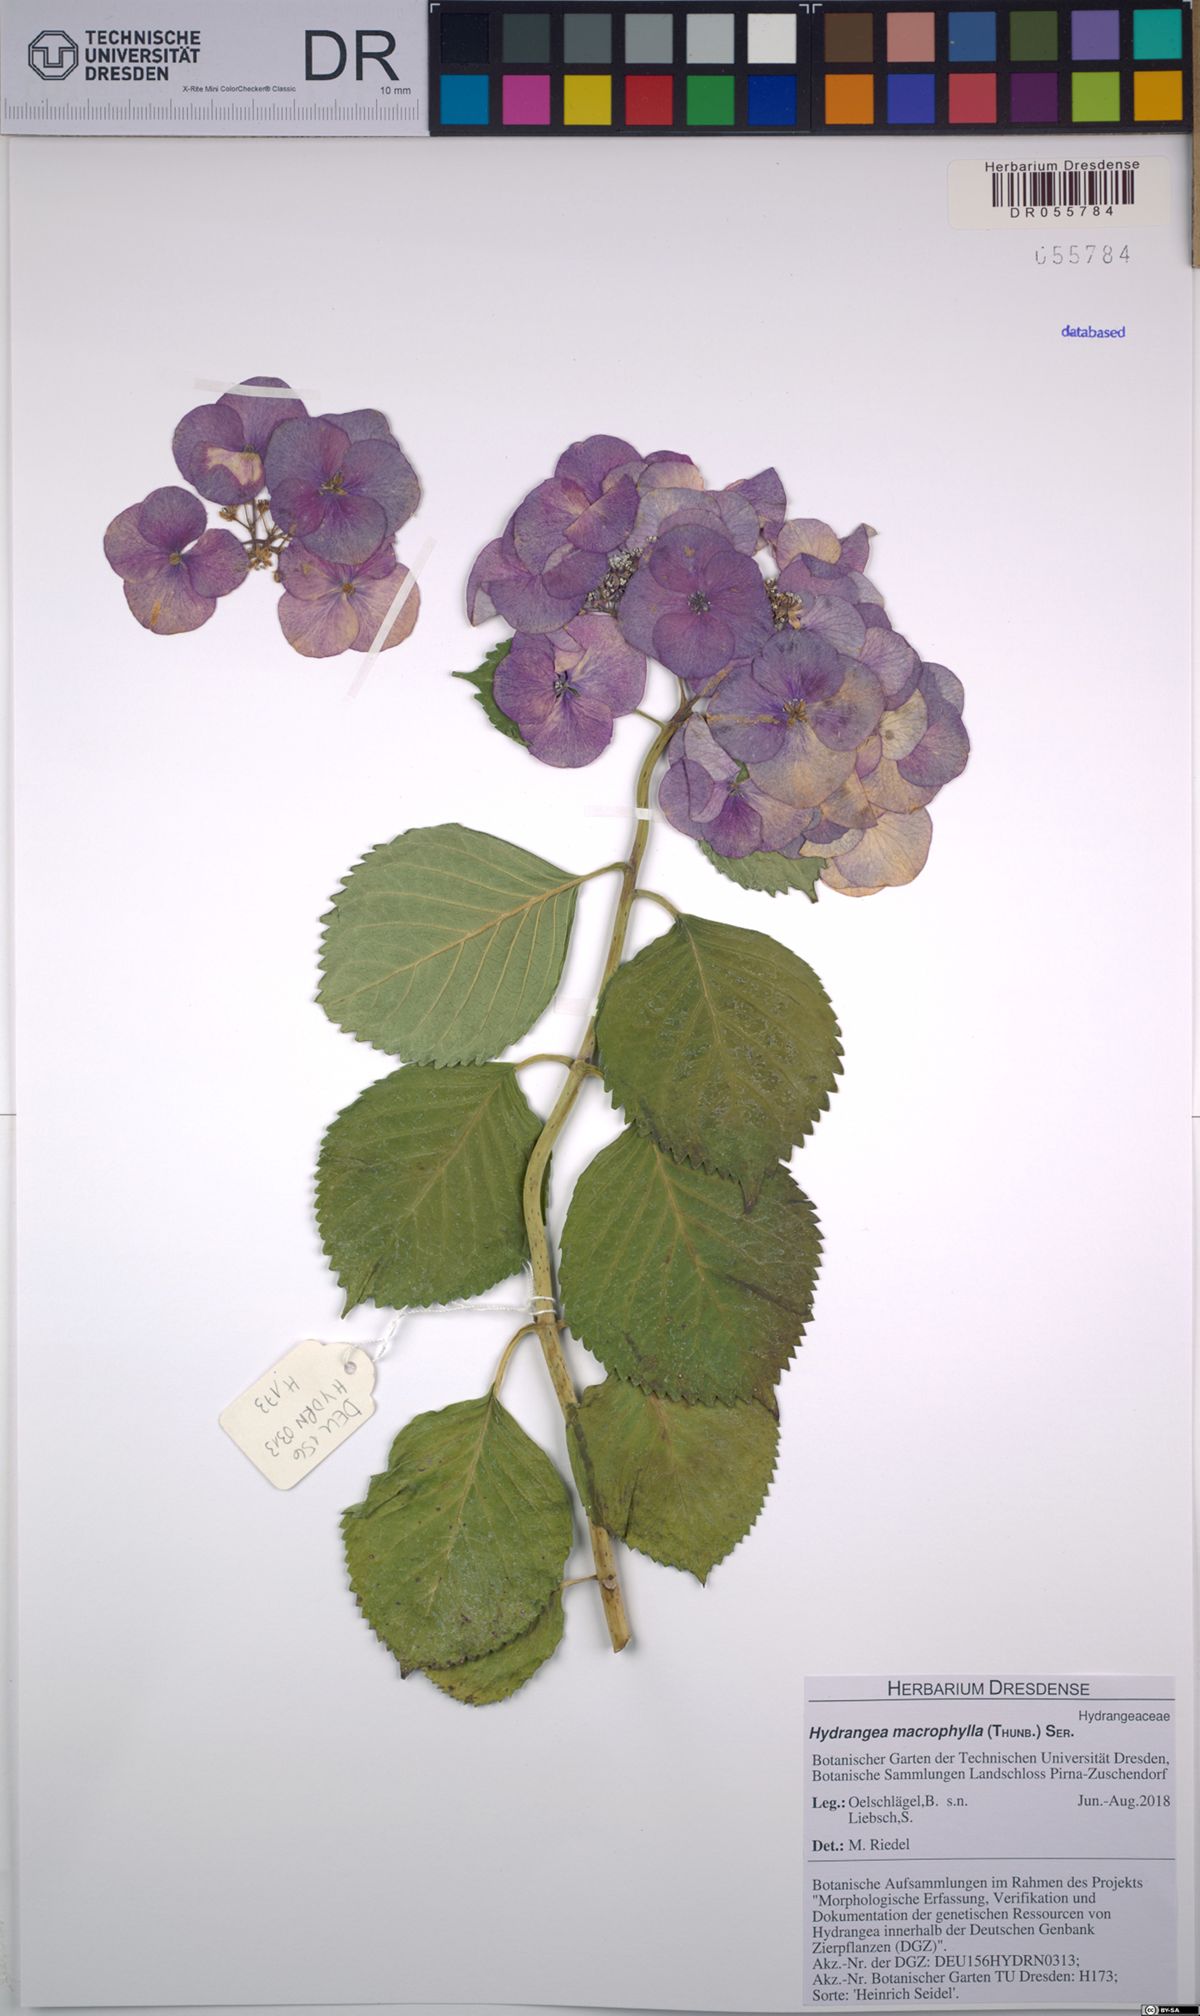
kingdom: Plantae
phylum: Tracheophyta
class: Magnoliopsida
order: Cornales
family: Hydrangeaceae
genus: Hydrangea
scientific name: Hydrangea macrophylla
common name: Hydrangea
